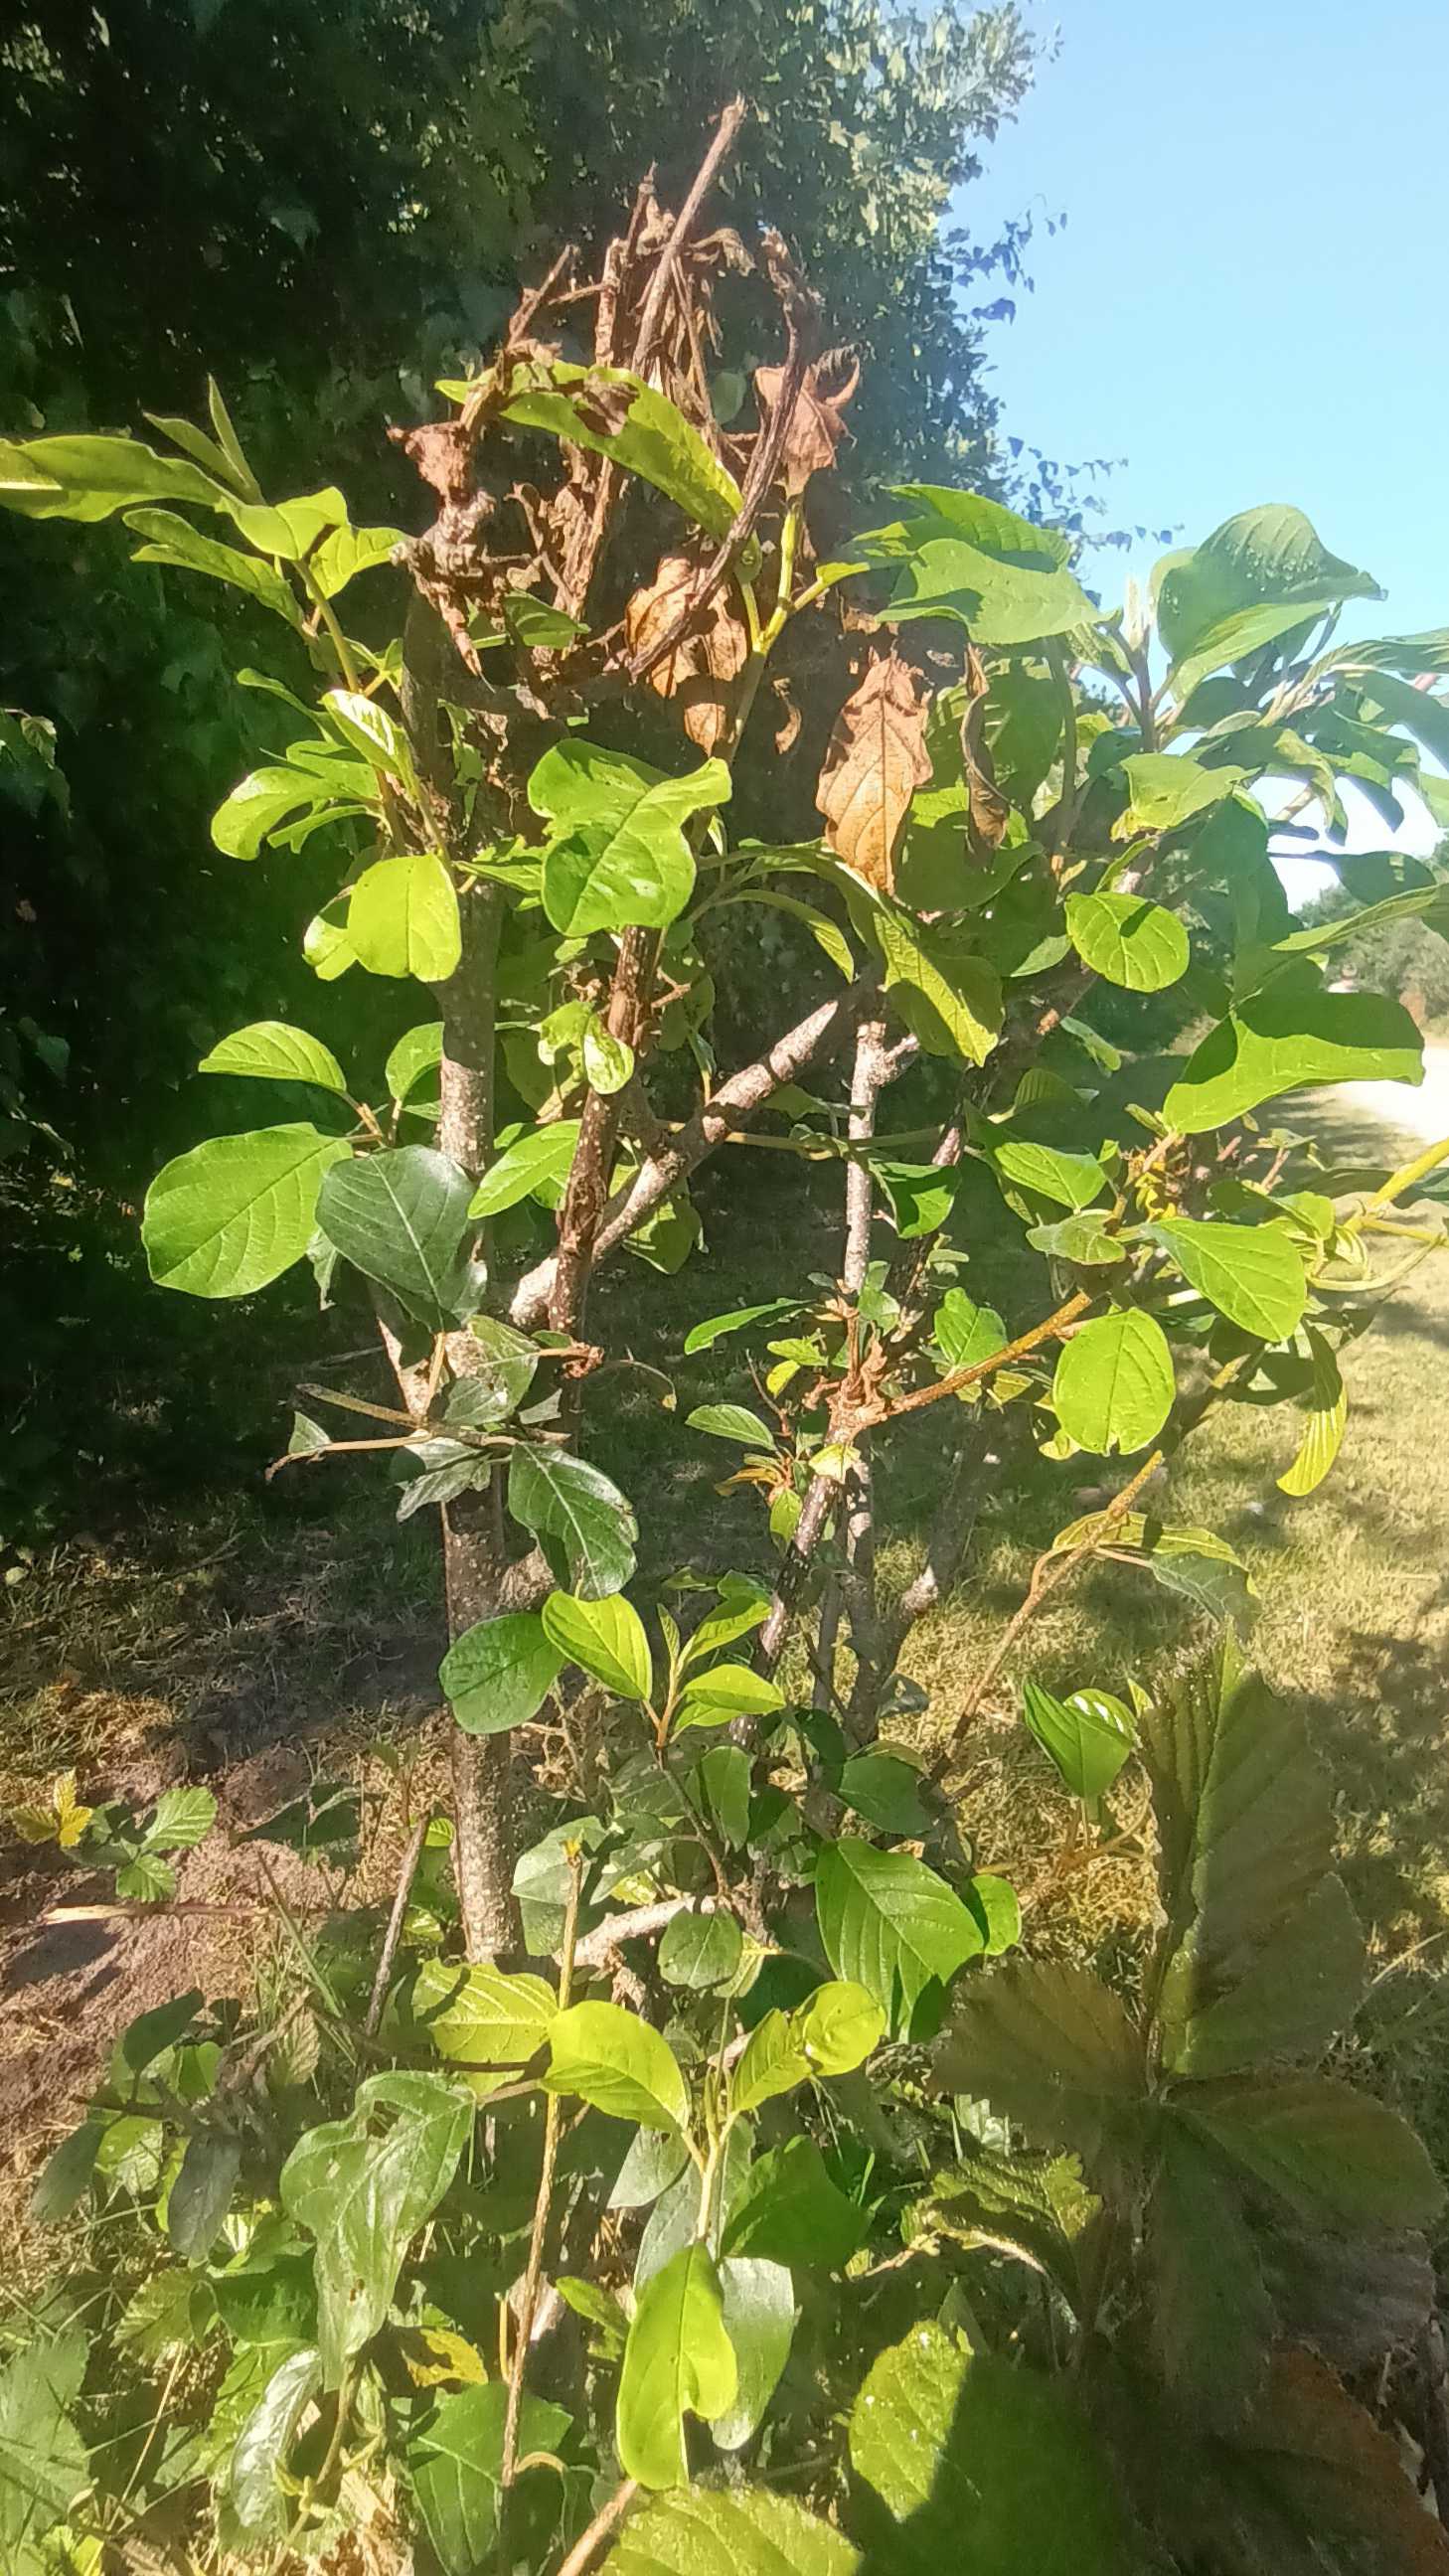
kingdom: Plantae
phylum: Tracheophyta
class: Magnoliopsida
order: Rosales
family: Rhamnaceae
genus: Frangula
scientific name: Frangula alnus
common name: Tørst
